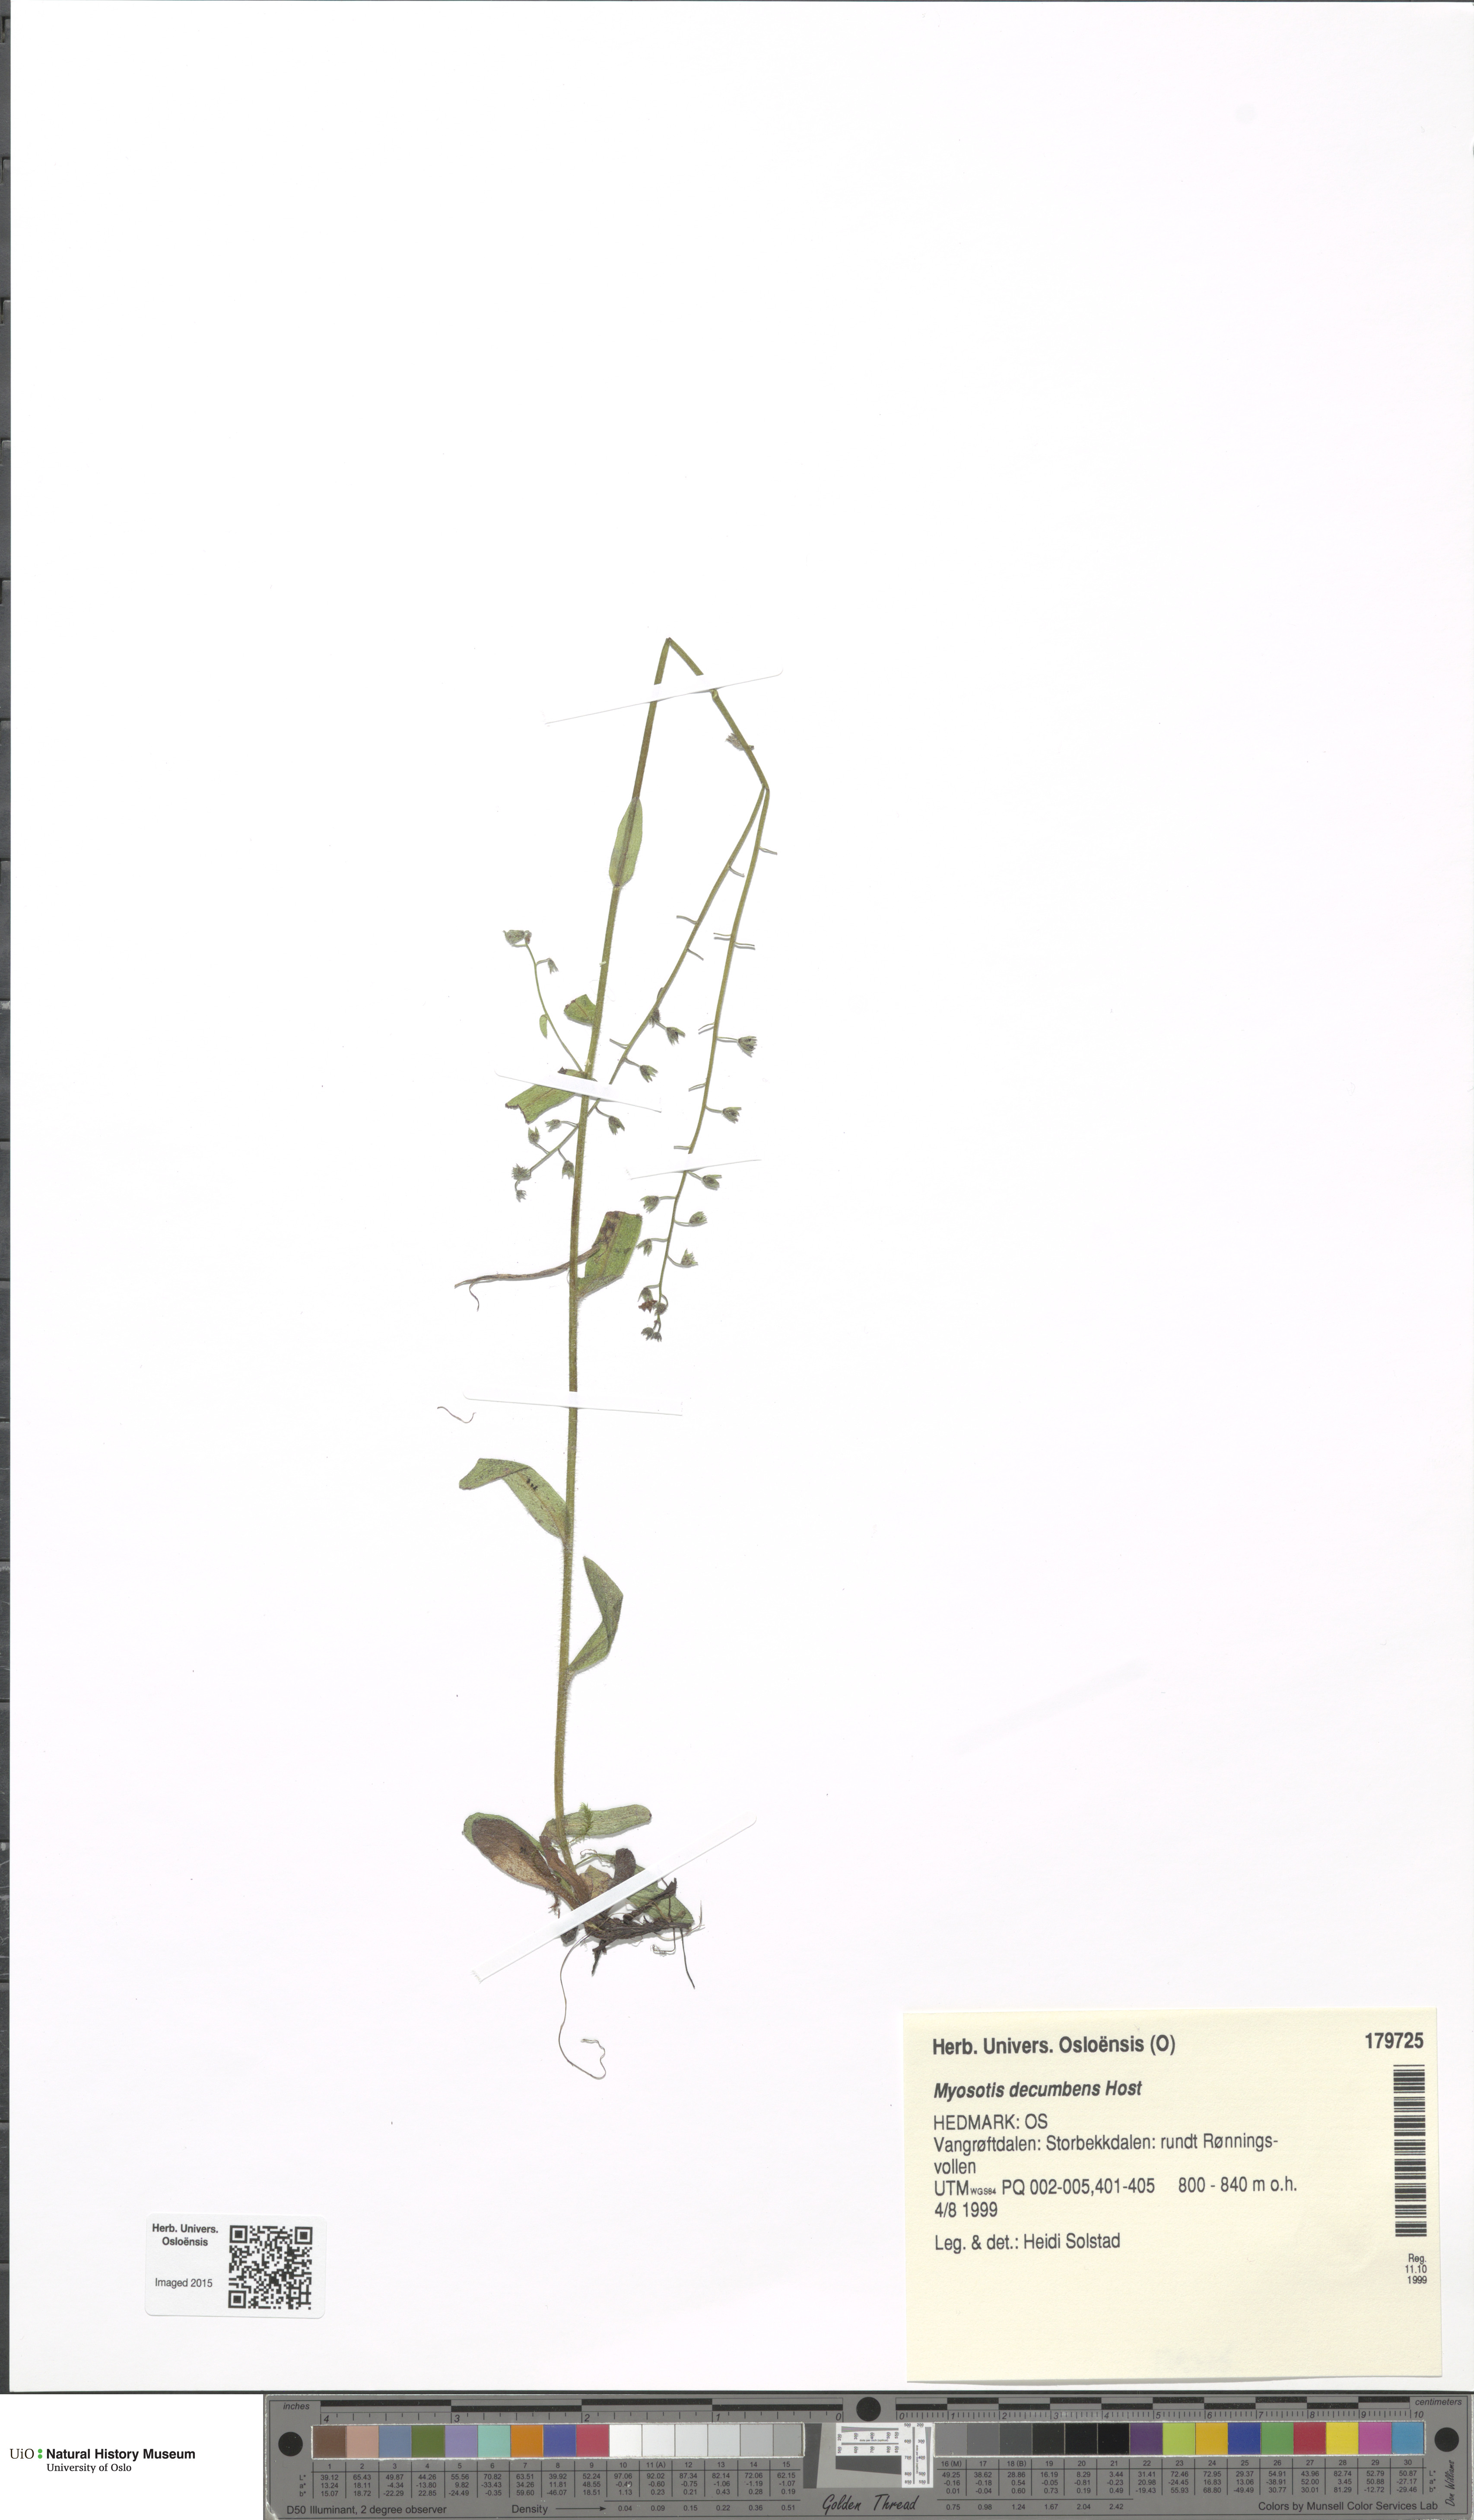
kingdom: Plantae
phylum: Tracheophyta
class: Magnoliopsida
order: Boraginales
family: Boraginaceae
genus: Myosotis
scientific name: Myosotis decumbens
